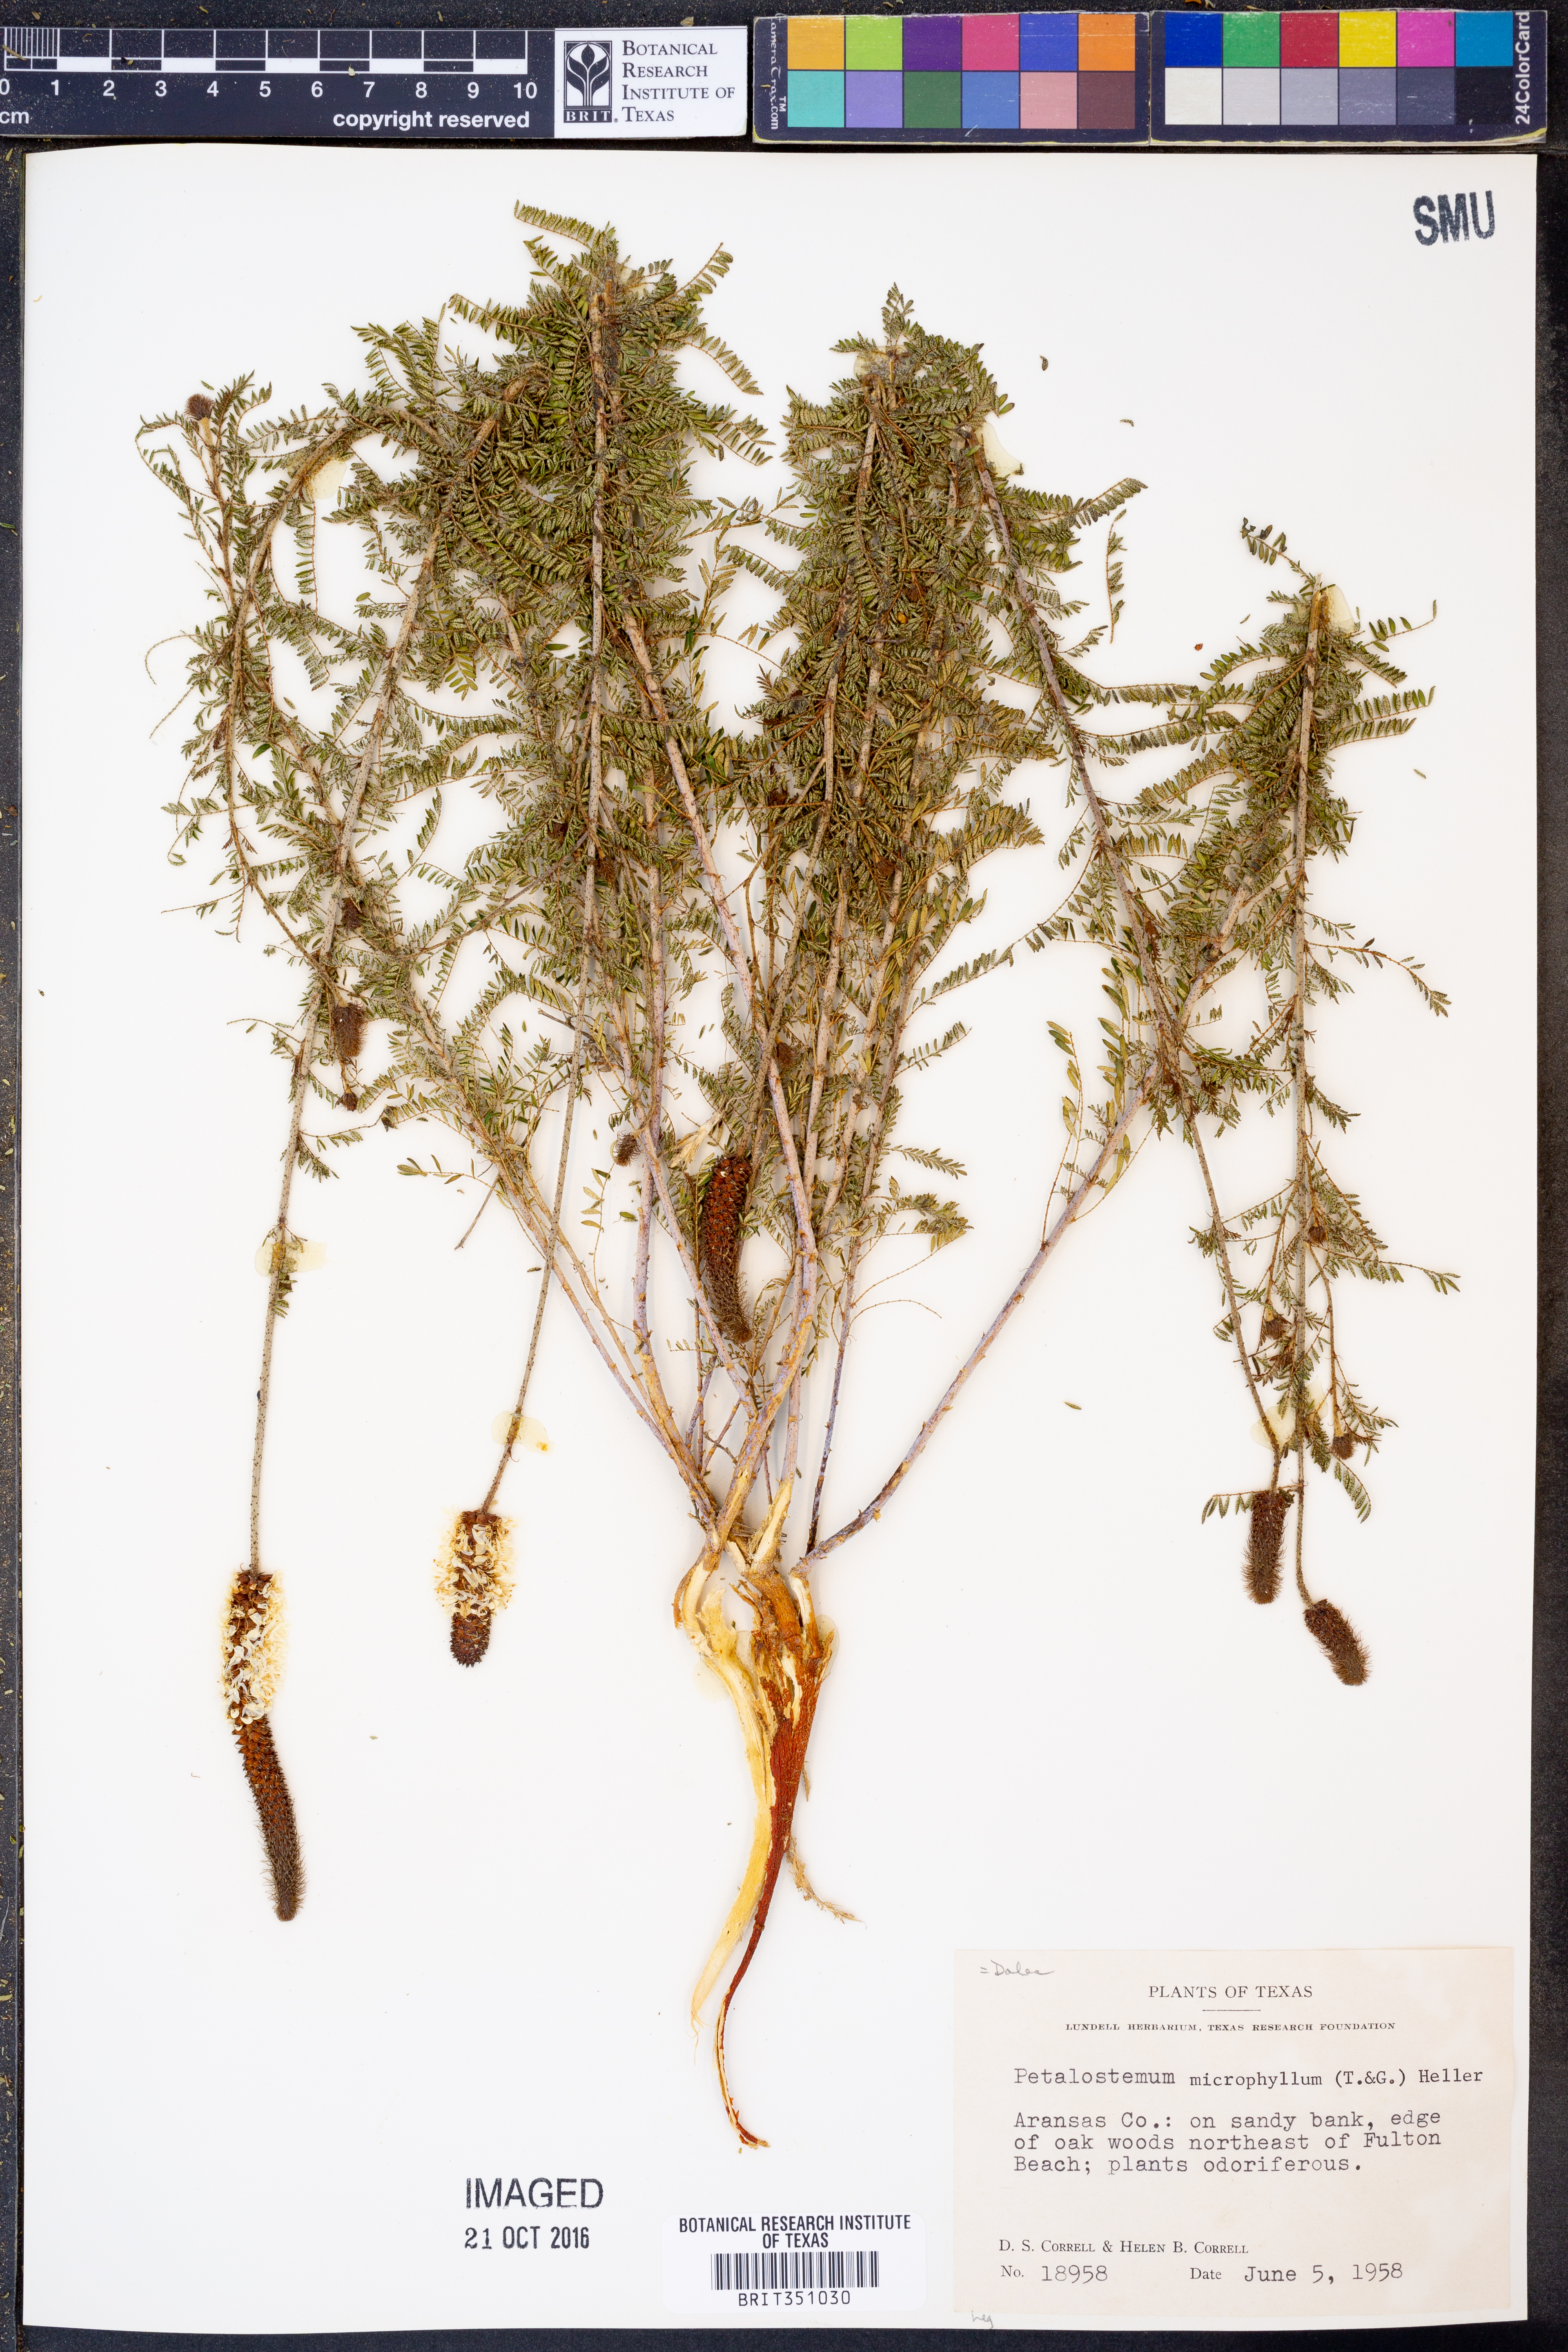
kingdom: Plantae
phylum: Tracheophyta
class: Magnoliopsida
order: Fabales
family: Fabaceae
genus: Dalea
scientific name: Dalea carthagenensis
